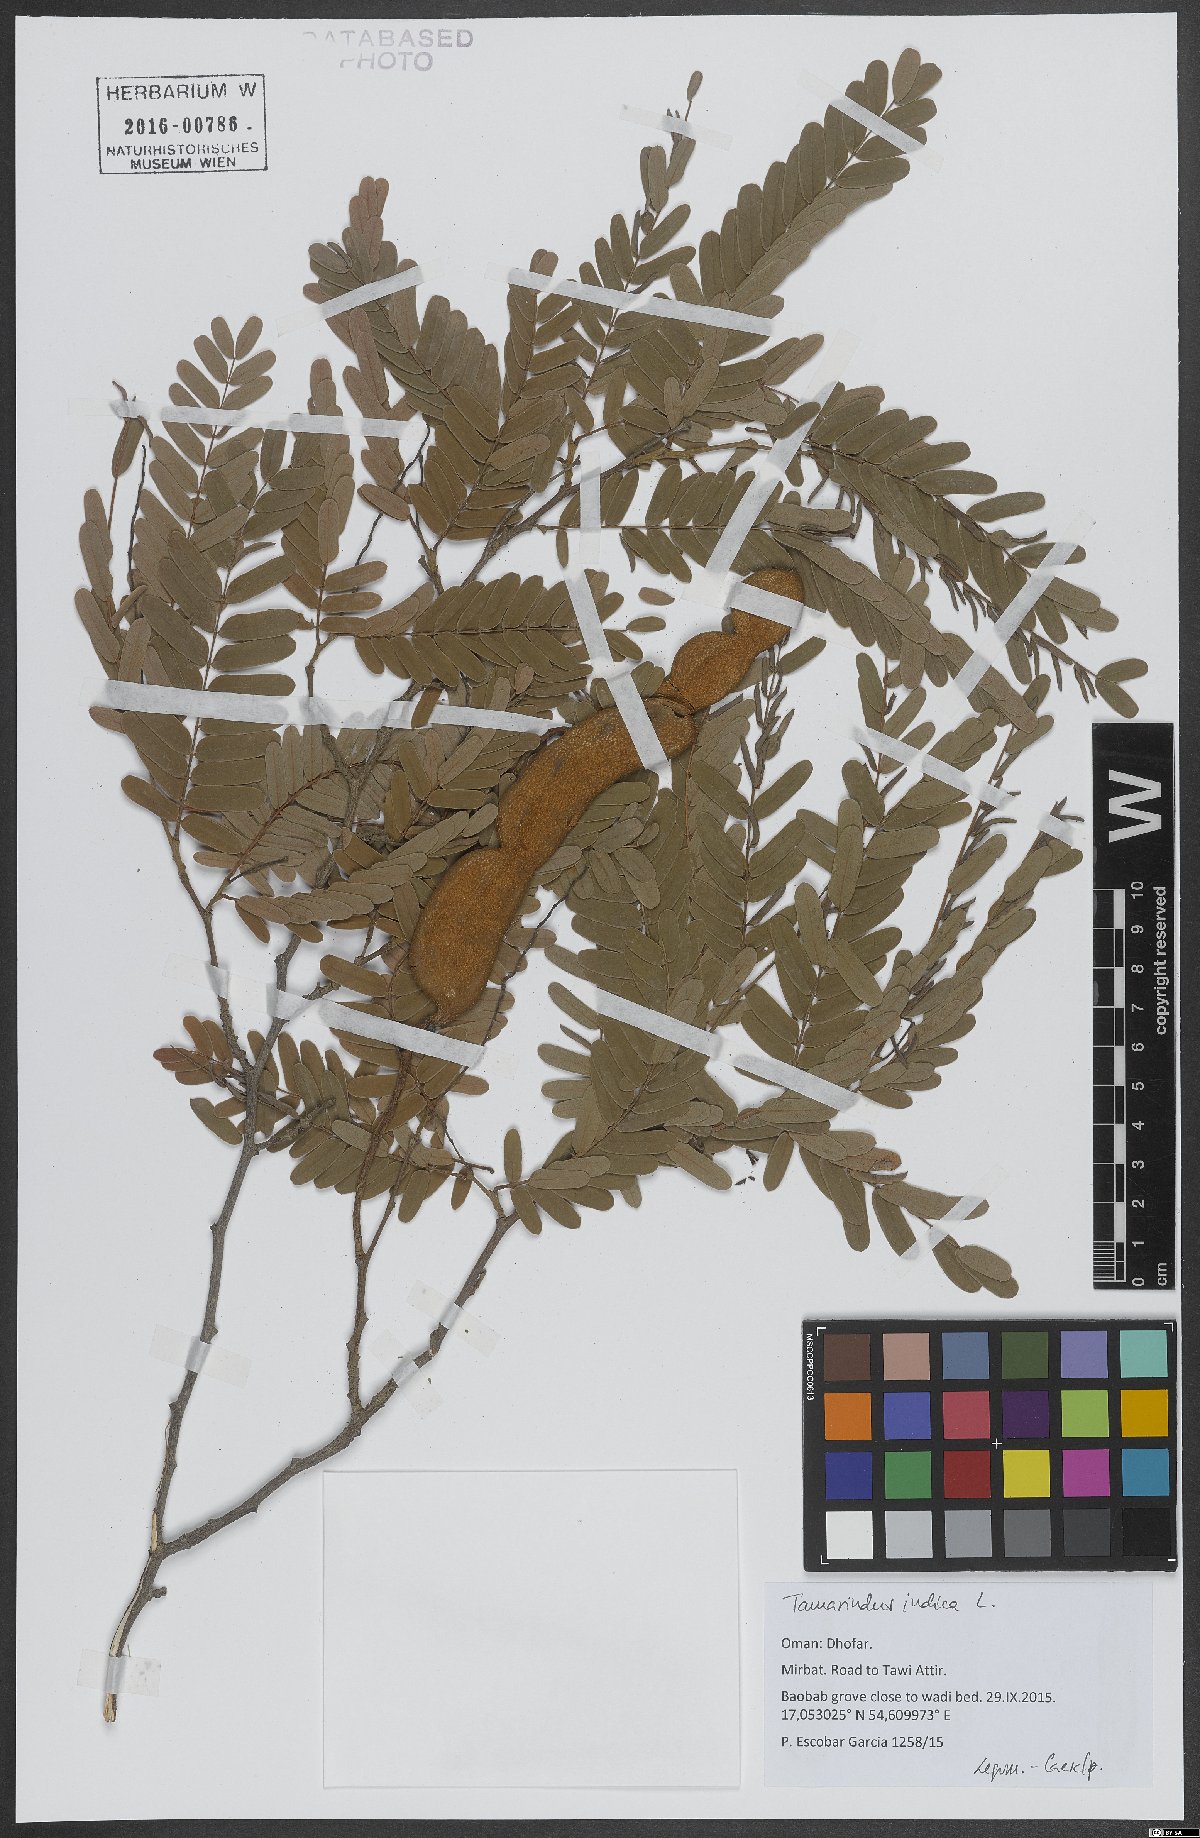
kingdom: Plantae
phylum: Tracheophyta
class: Magnoliopsida
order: Fabales
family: Fabaceae
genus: Tamarindus
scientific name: Tamarindus indica
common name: Tamarind
